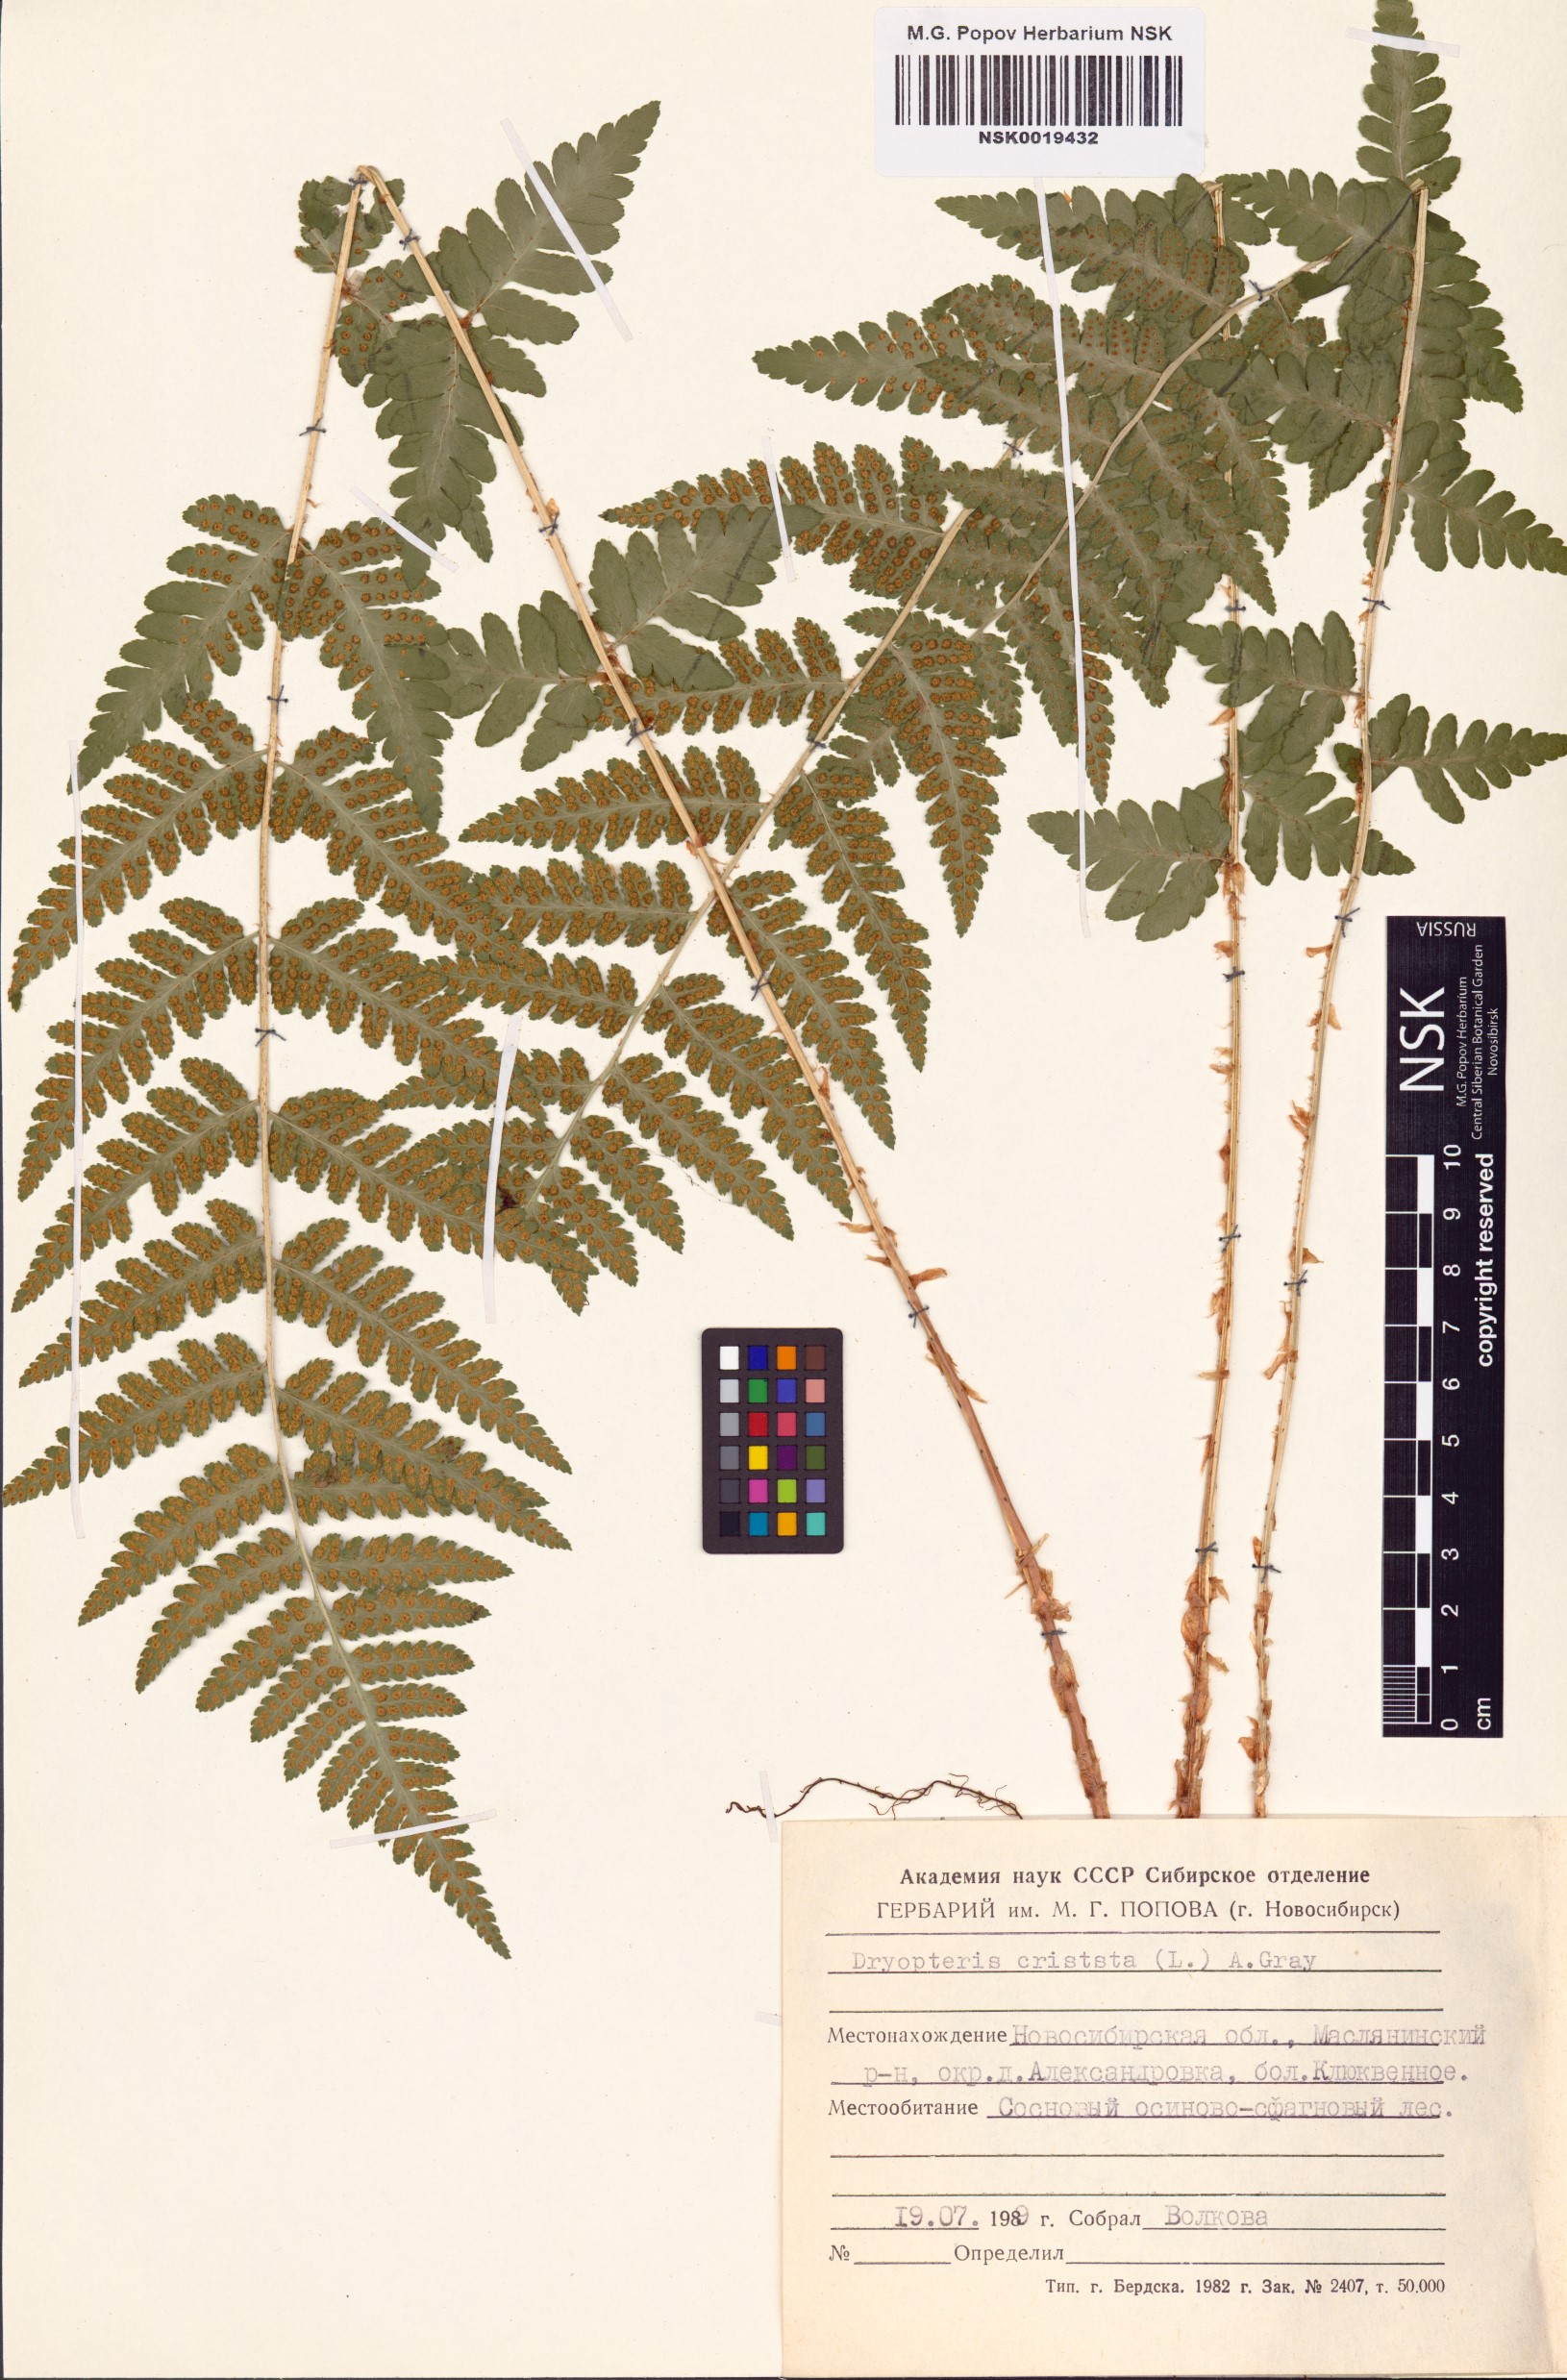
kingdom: Plantae
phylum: Tracheophyta
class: Polypodiopsida
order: Polypodiales
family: Dryopteridaceae
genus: Dryopteris
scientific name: Dryopteris cristata
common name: Crested wood fern
